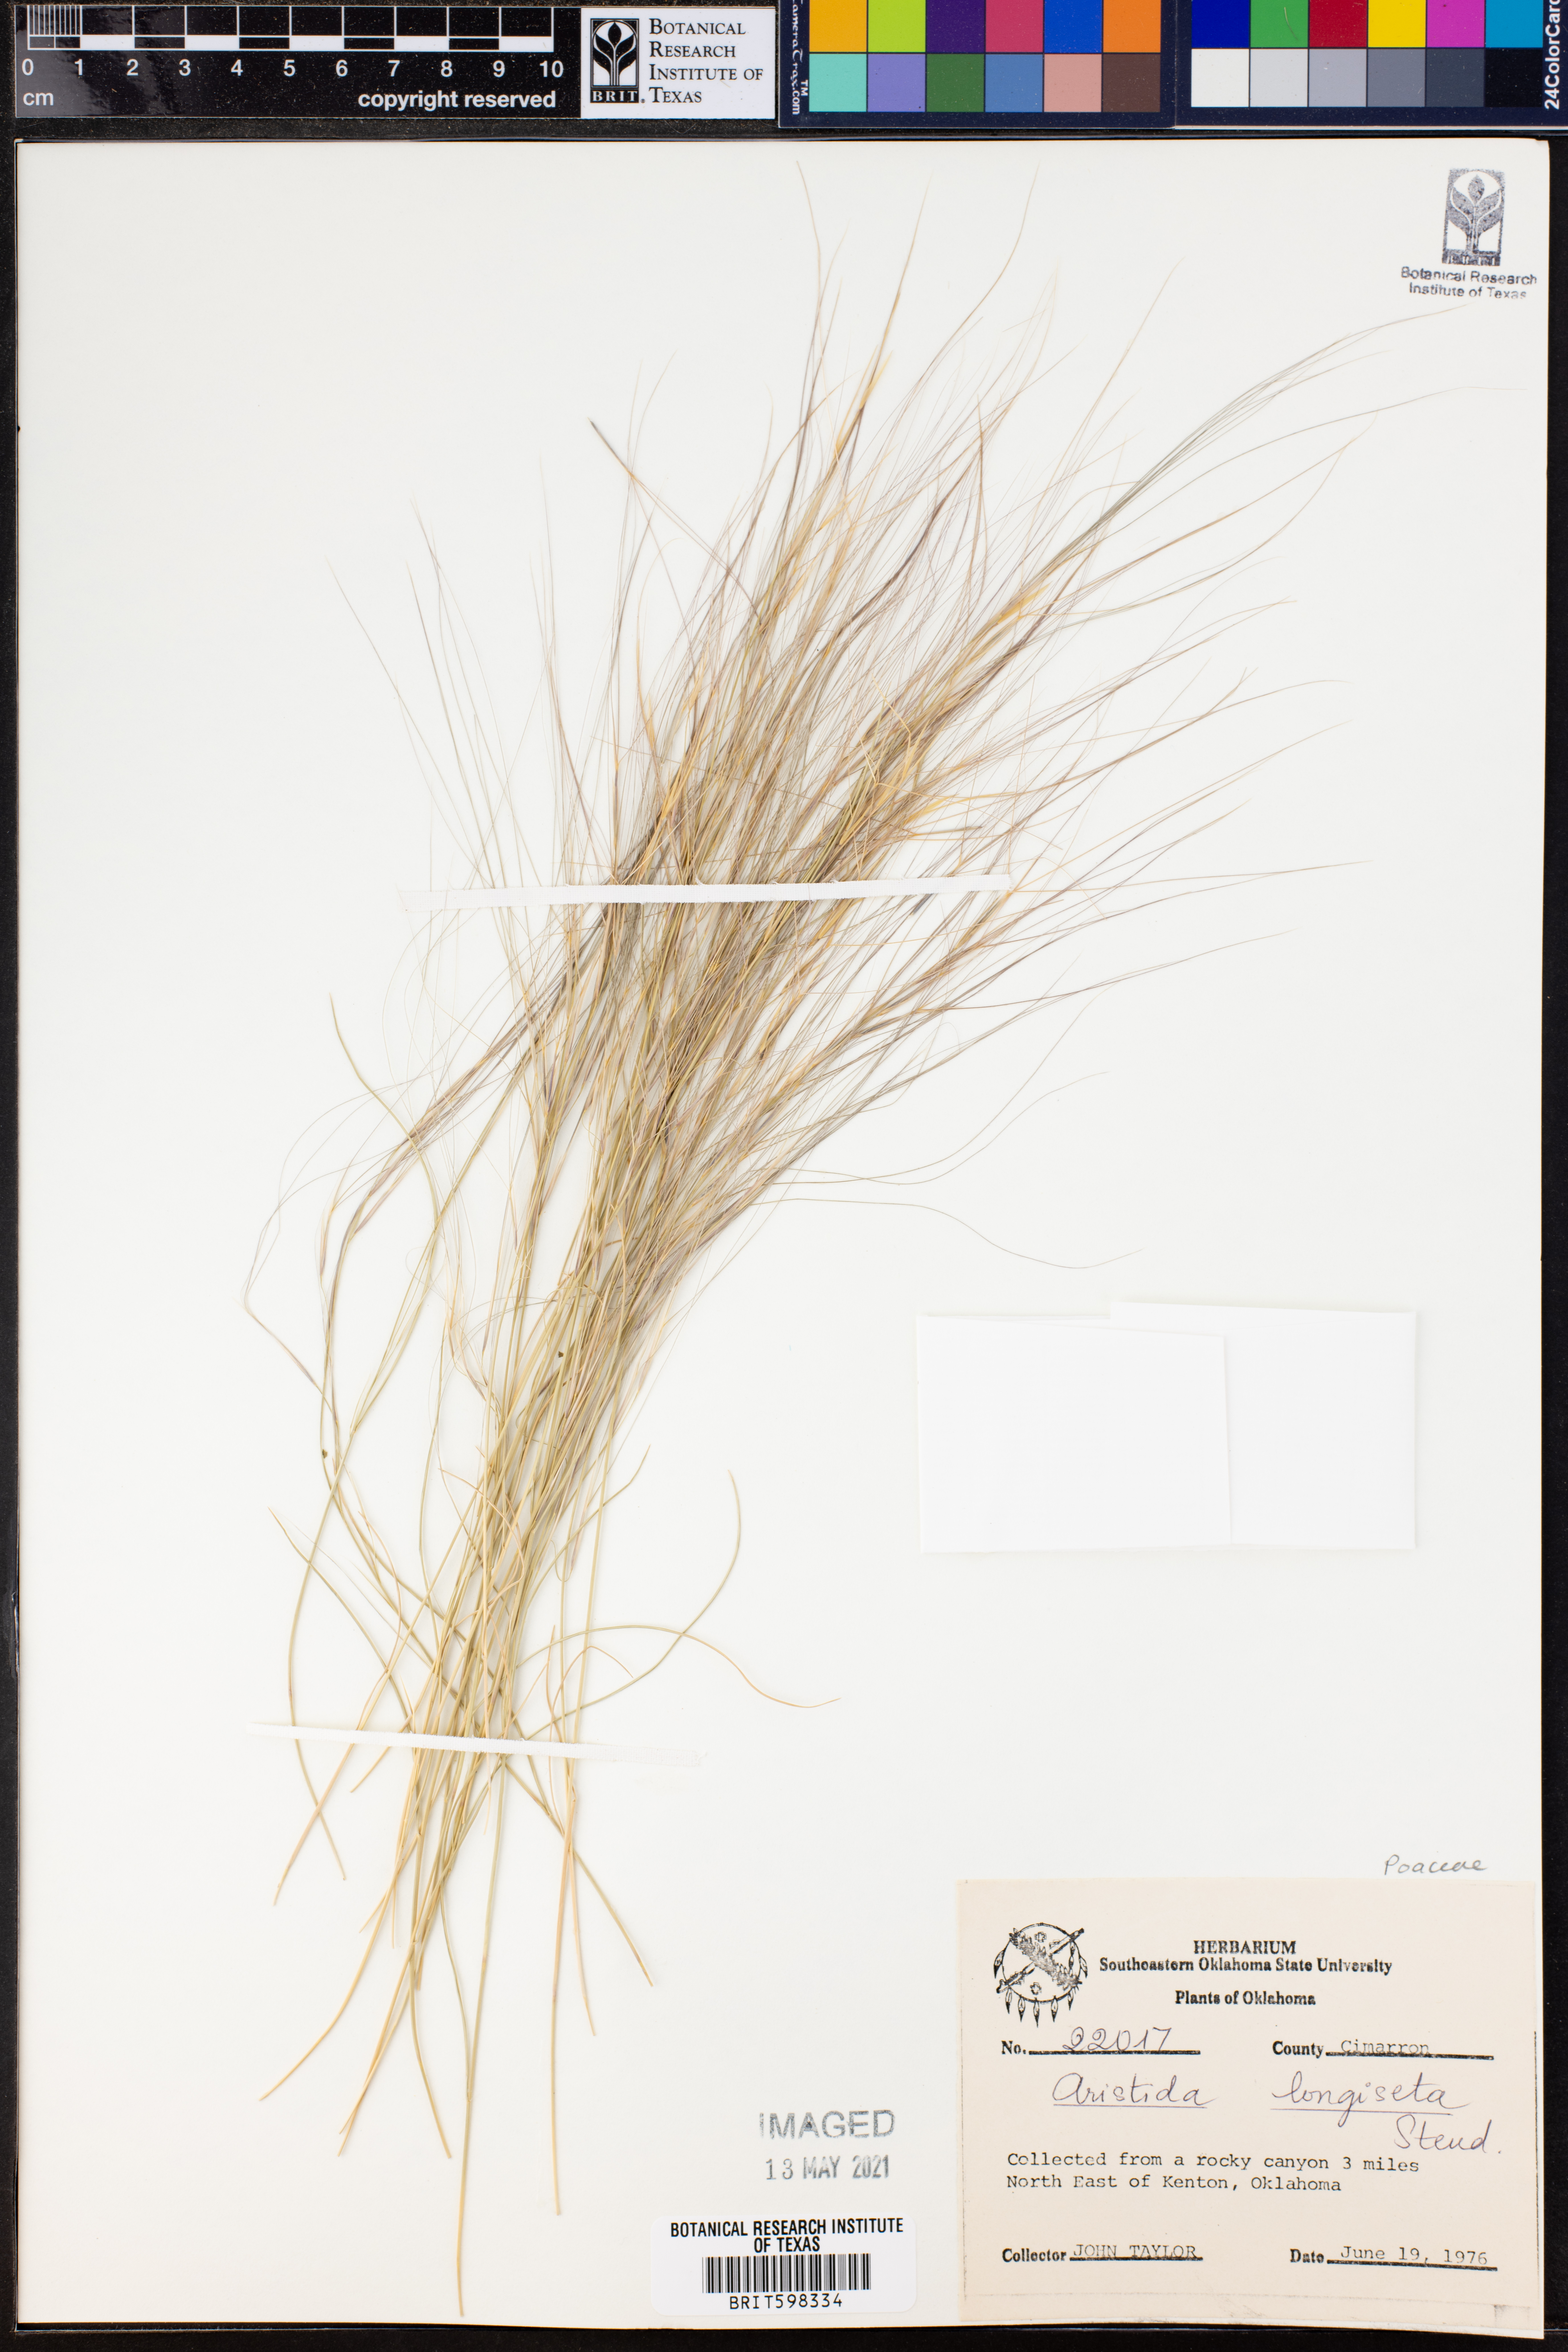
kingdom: Plantae
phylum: Tracheophyta
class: Liliopsida
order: Poales
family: Poaceae
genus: Aristida
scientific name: Aristida longiseta
